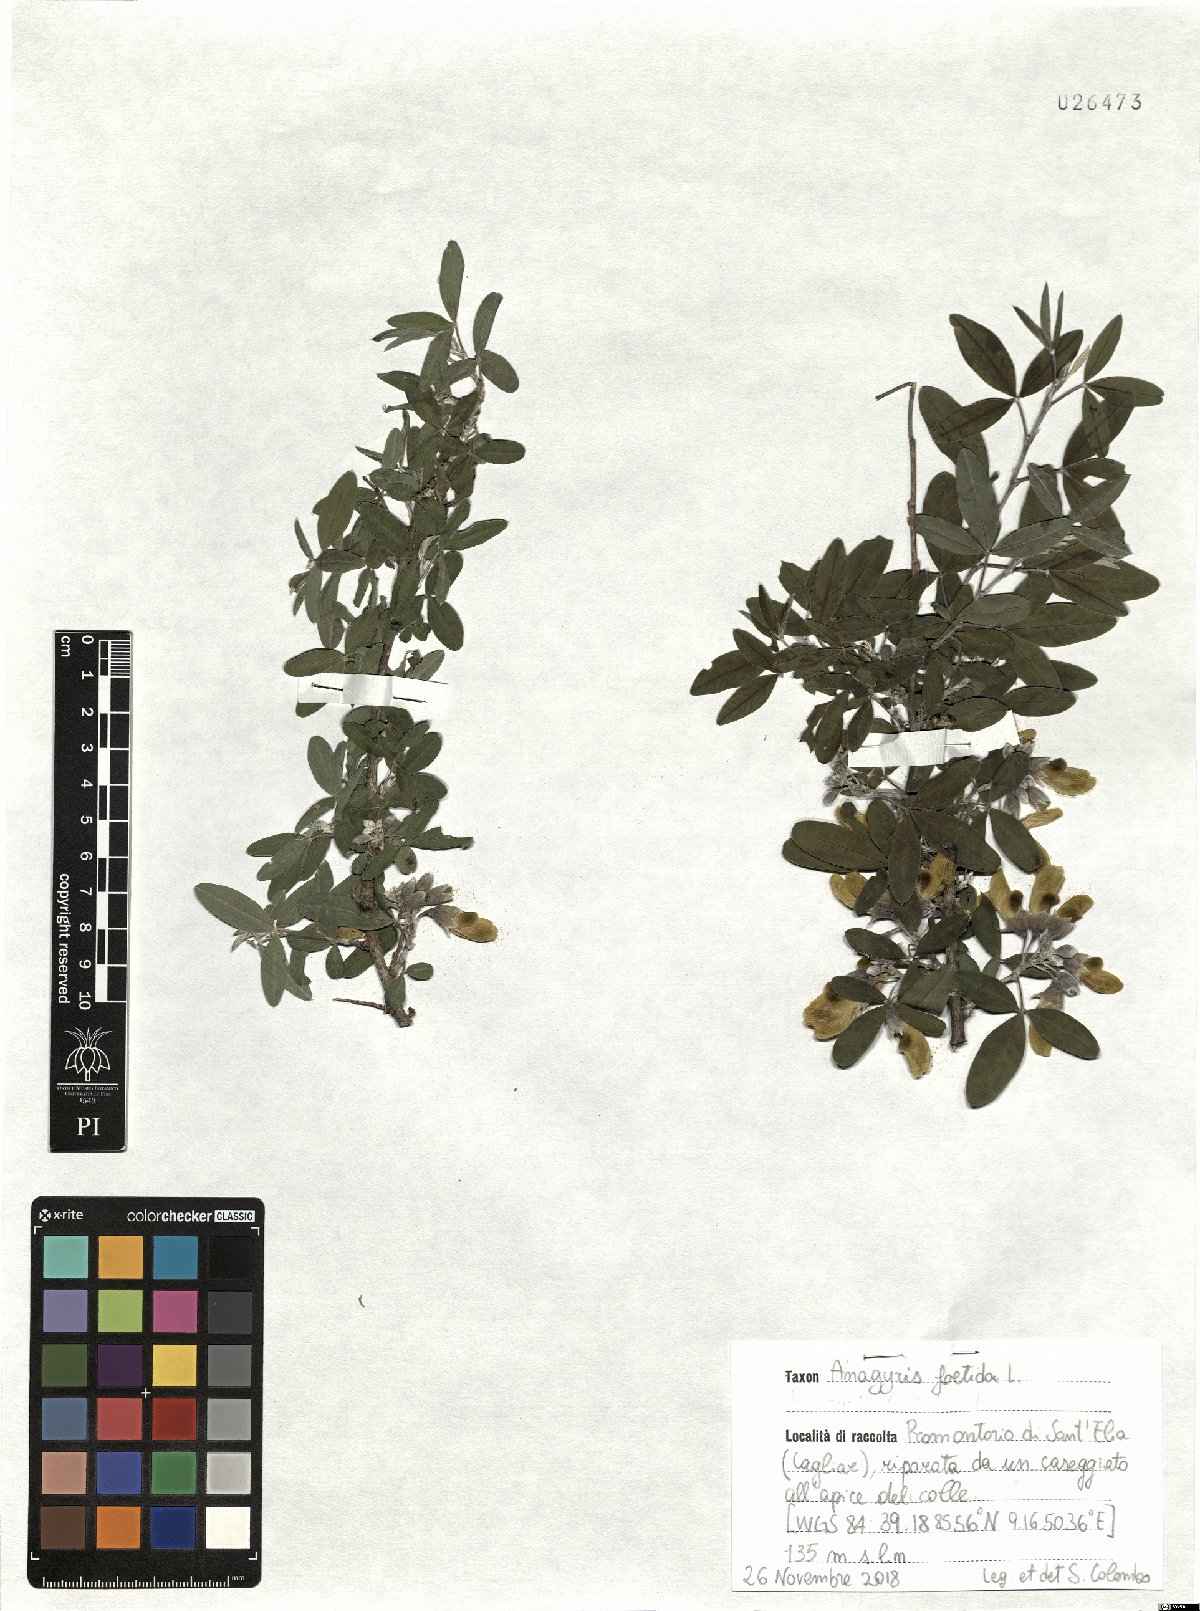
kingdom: Plantae
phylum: Tracheophyta
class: Magnoliopsida
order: Fabales
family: Fabaceae
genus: Anagyris
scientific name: Anagyris foetida
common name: Stinking bean trefoil
